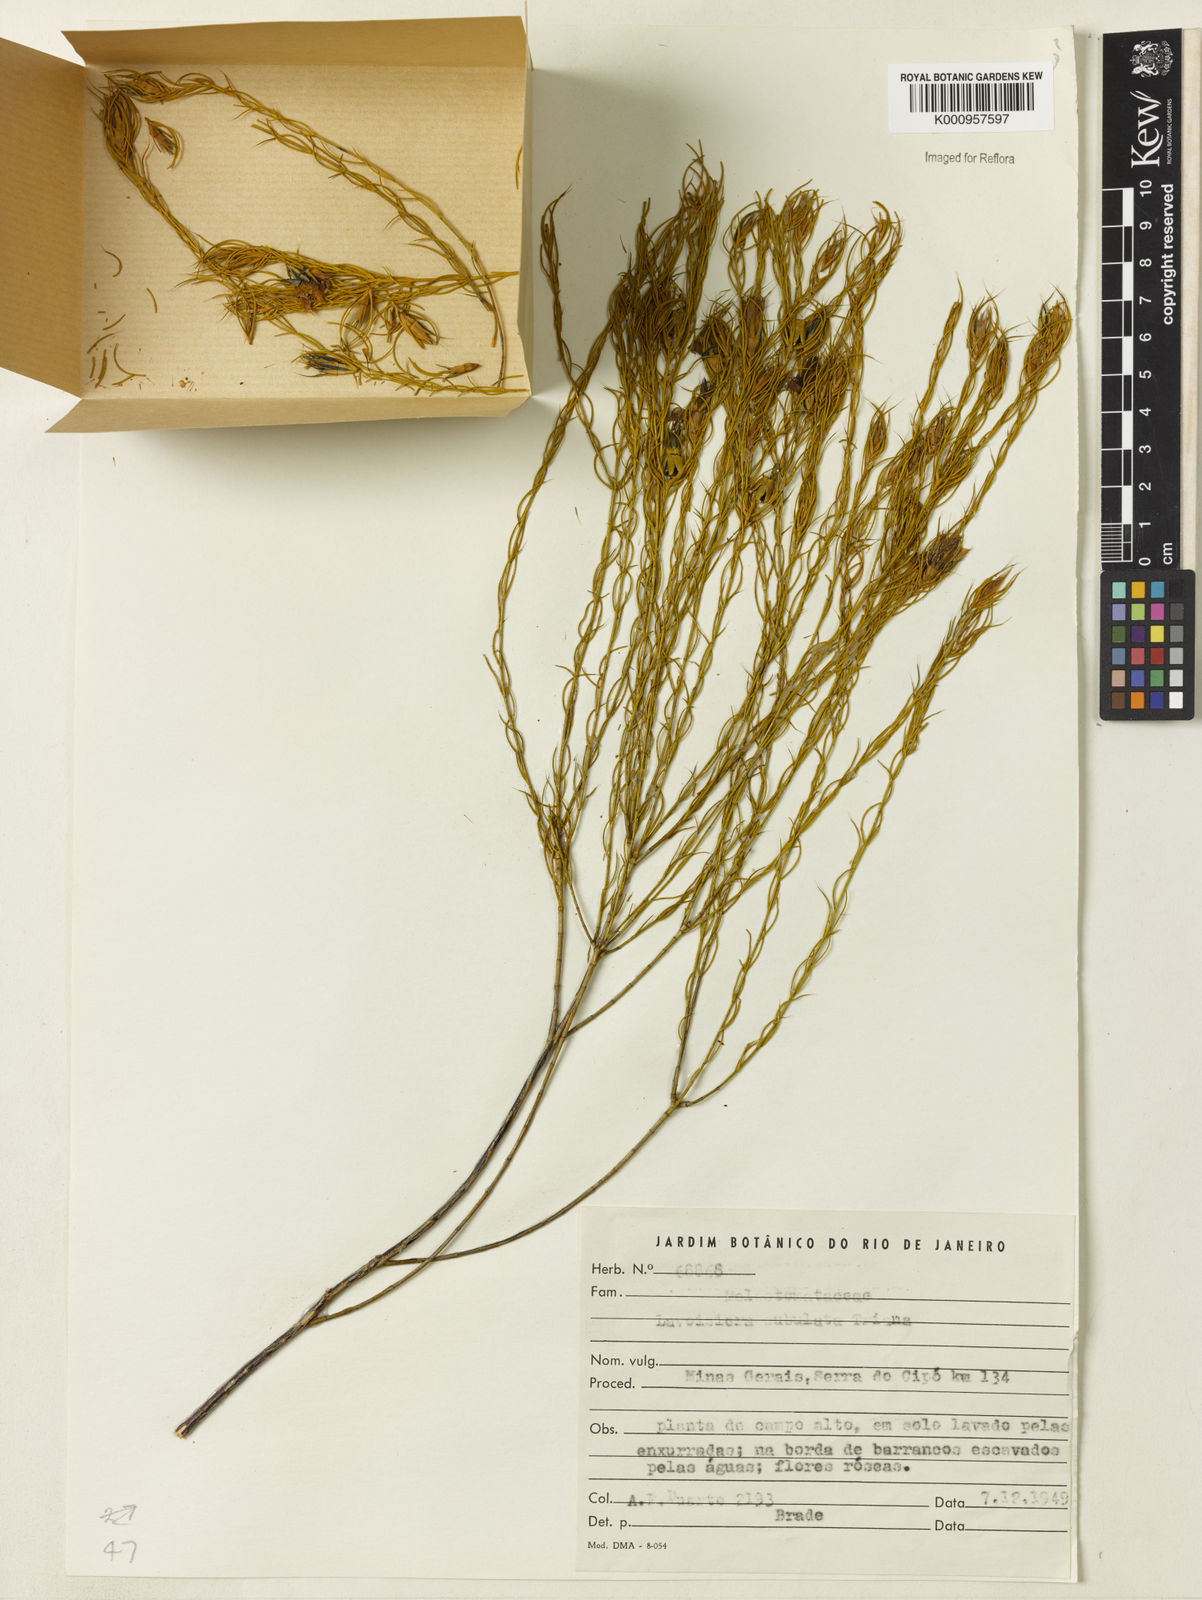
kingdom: Plantae
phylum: Tracheophyta
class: Magnoliopsida
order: Myrtales
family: Melastomataceae
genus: Microlicia
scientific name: Microlicia subulata
